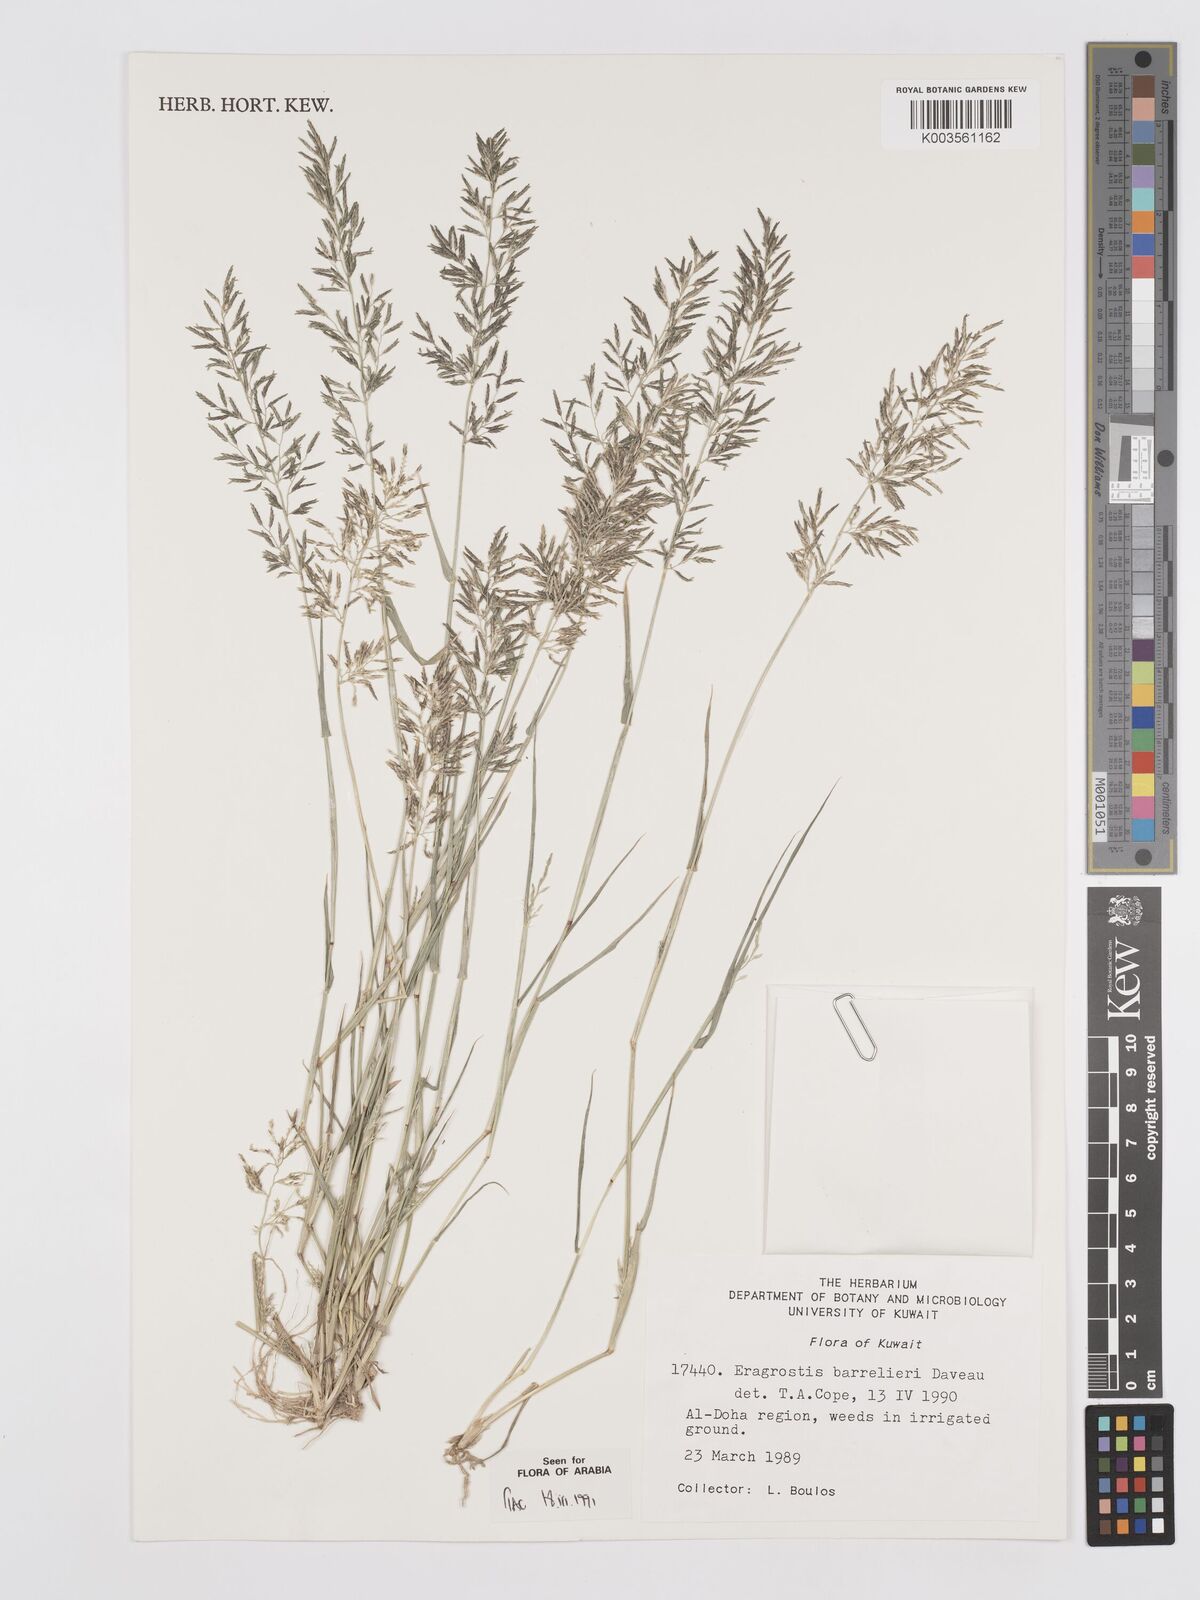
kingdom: Plantae
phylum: Tracheophyta
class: Liliopsida
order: Poales
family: Poaceae
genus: Eragrostis
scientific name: Eragrostis barrelieri
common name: Mediterranean lovegrass
